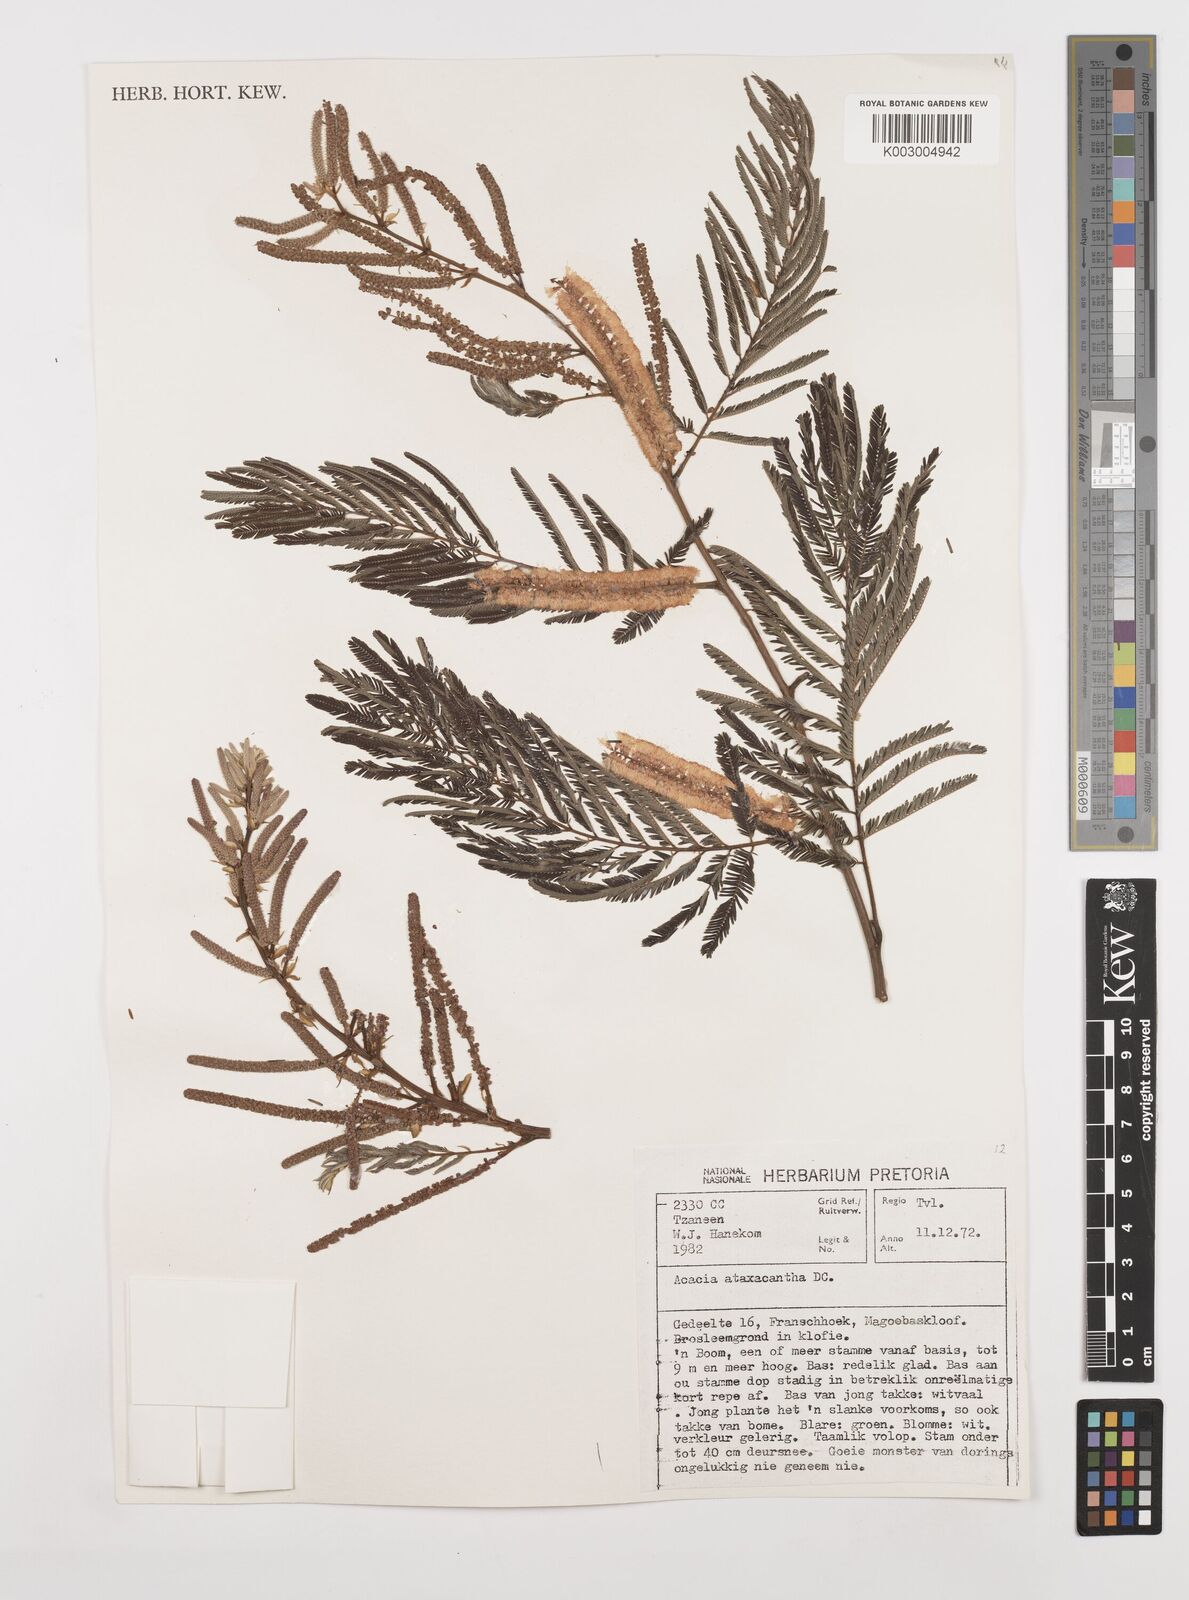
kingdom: Plantae
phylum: Tracheophyta
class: Magnoliopsida
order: Fabales
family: Fabaceae
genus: Senegalia
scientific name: Senegalia ataxacantha
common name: Flame acacia
